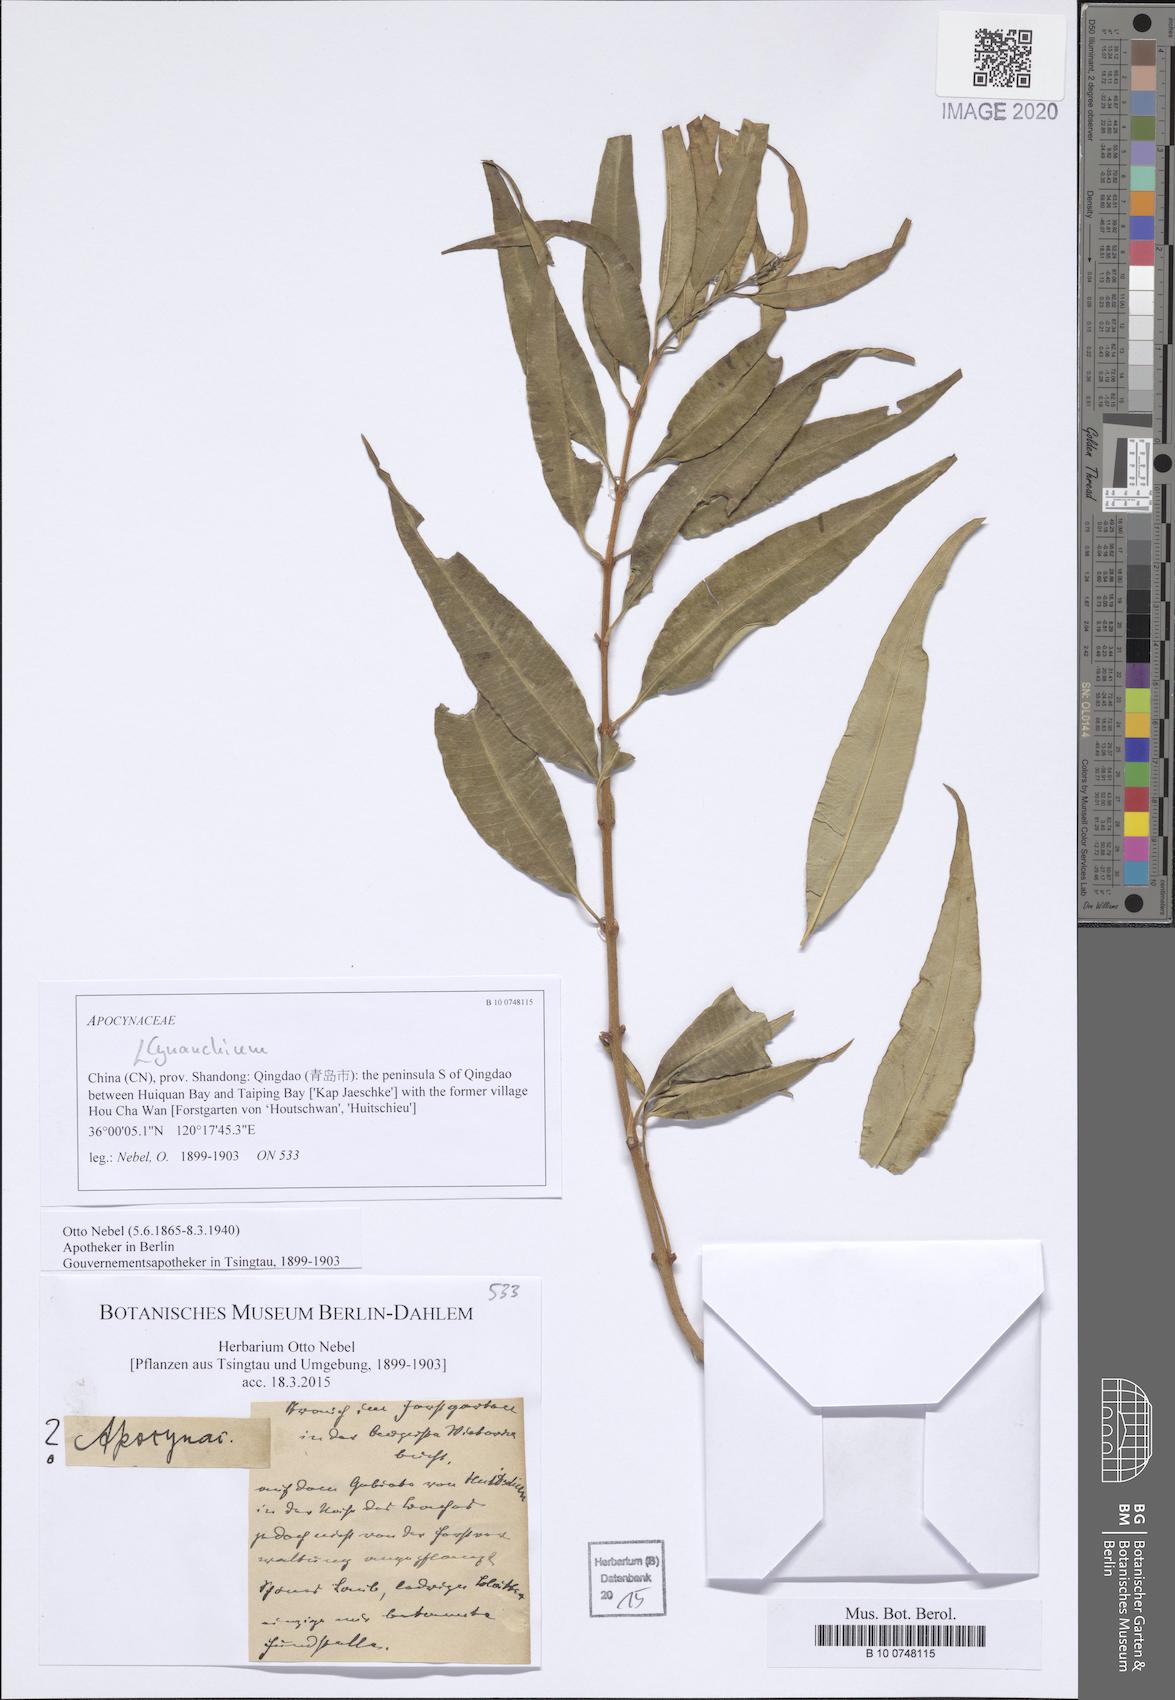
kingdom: Plantae
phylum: Tracheophyta
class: Magnoliopsida
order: Gentianales
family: Apocynaceae
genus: Cynanchum
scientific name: Cynanchum
